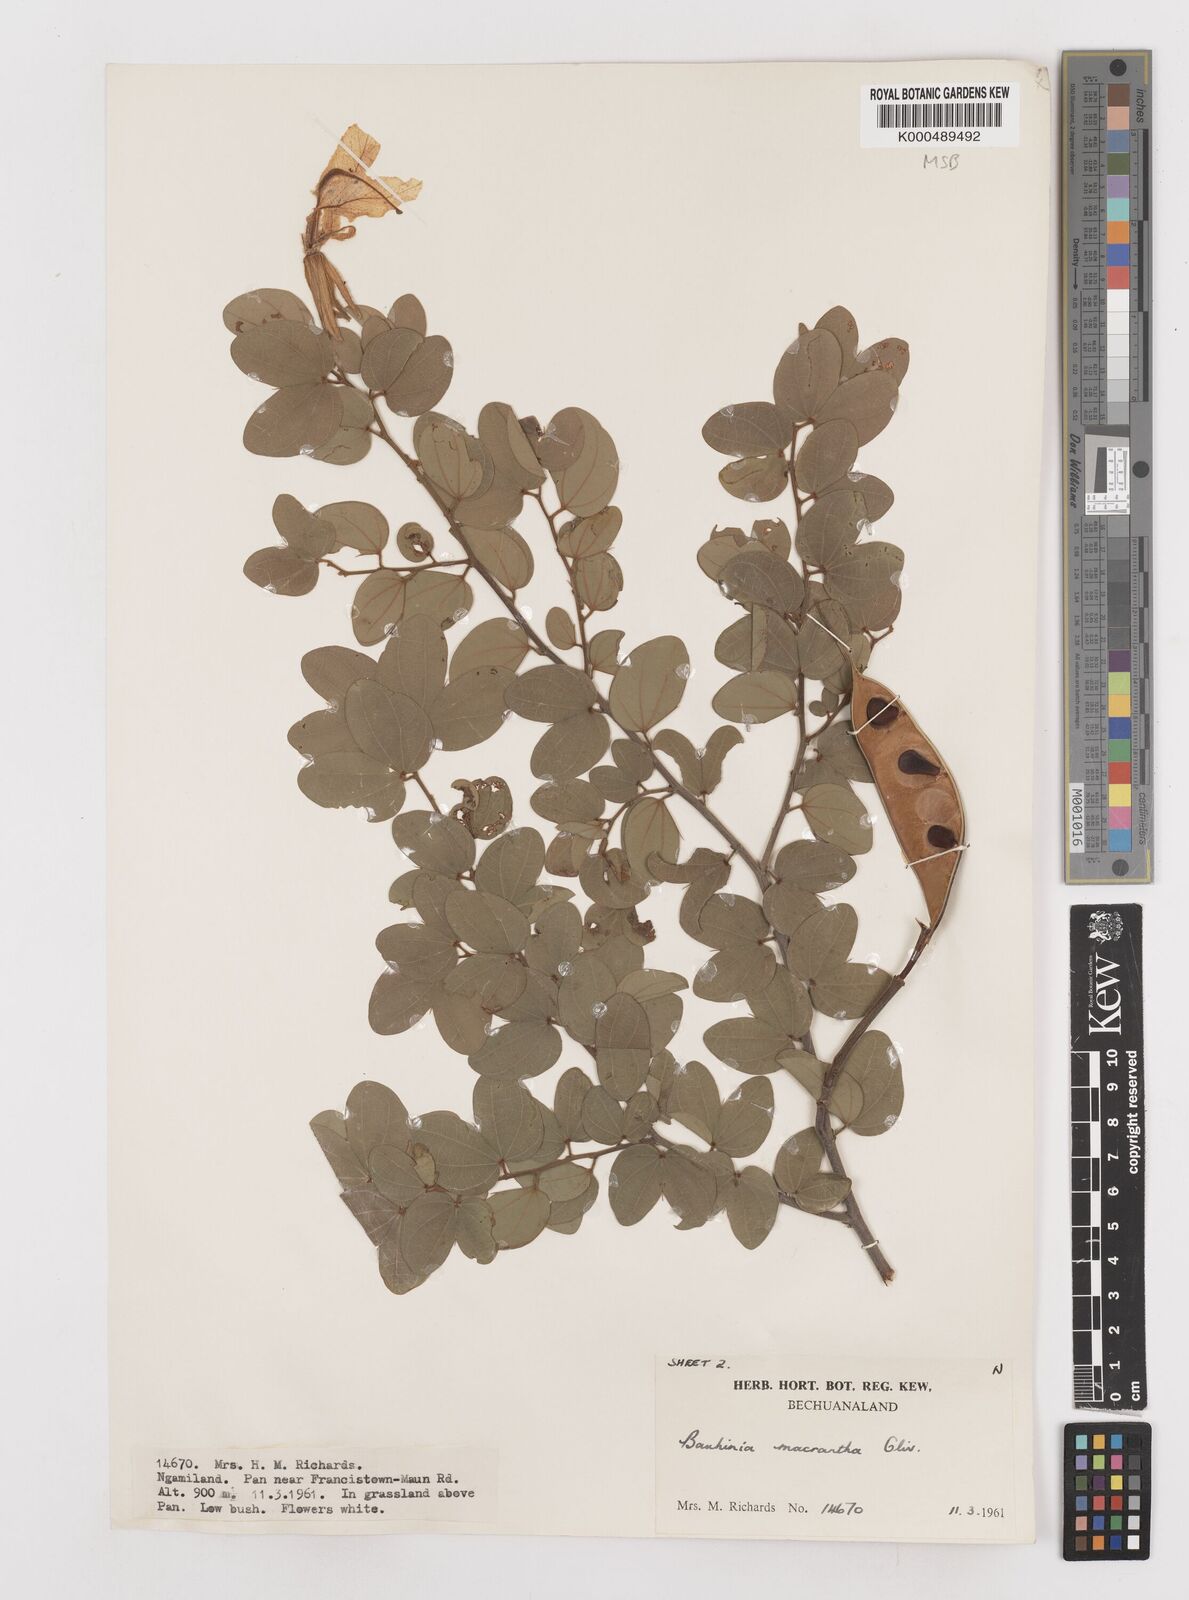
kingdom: Plantae
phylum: Tracheophyta
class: Magnoliopsida
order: Fabales
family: Fabaceae
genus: Bauhinia
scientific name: Bauhinia macrantha
